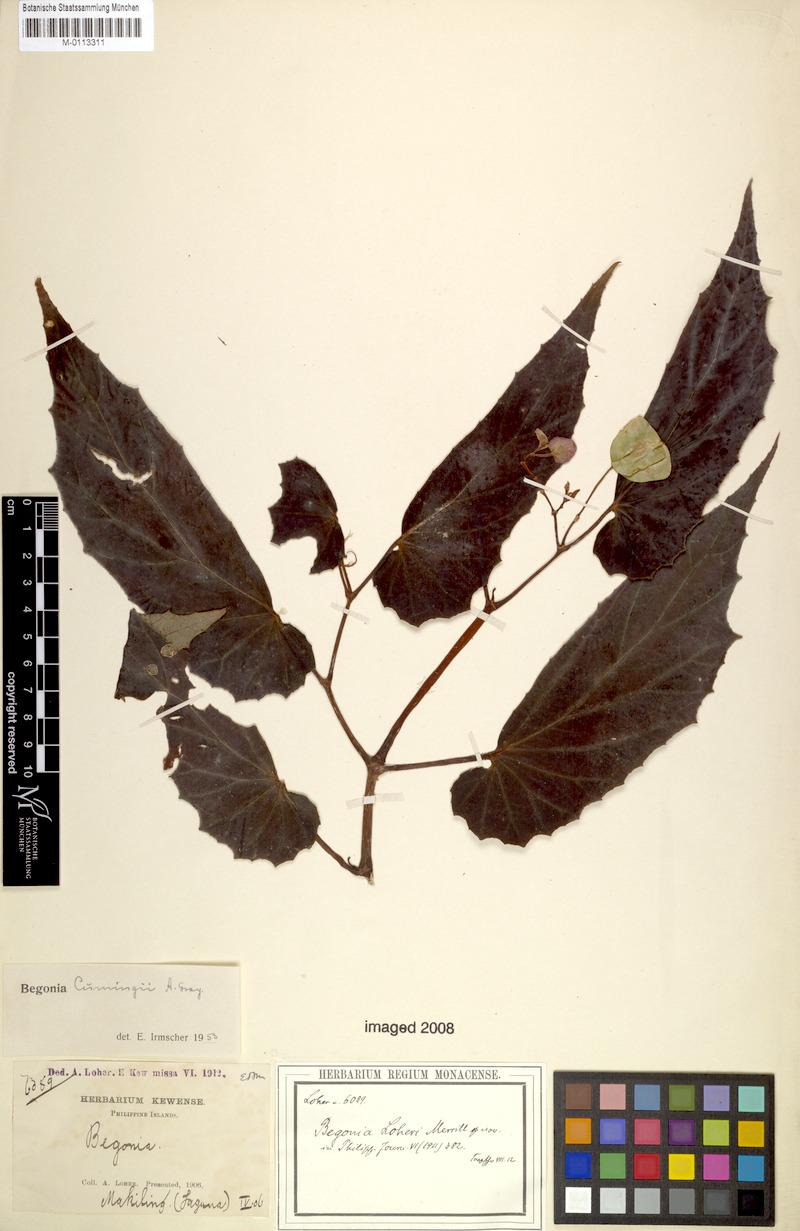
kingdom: Plantae
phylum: Tracheophyta
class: Magnoliopsida
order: Cucurbitales
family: Begoniaceae
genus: Begonia
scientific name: Begonia cumingii
